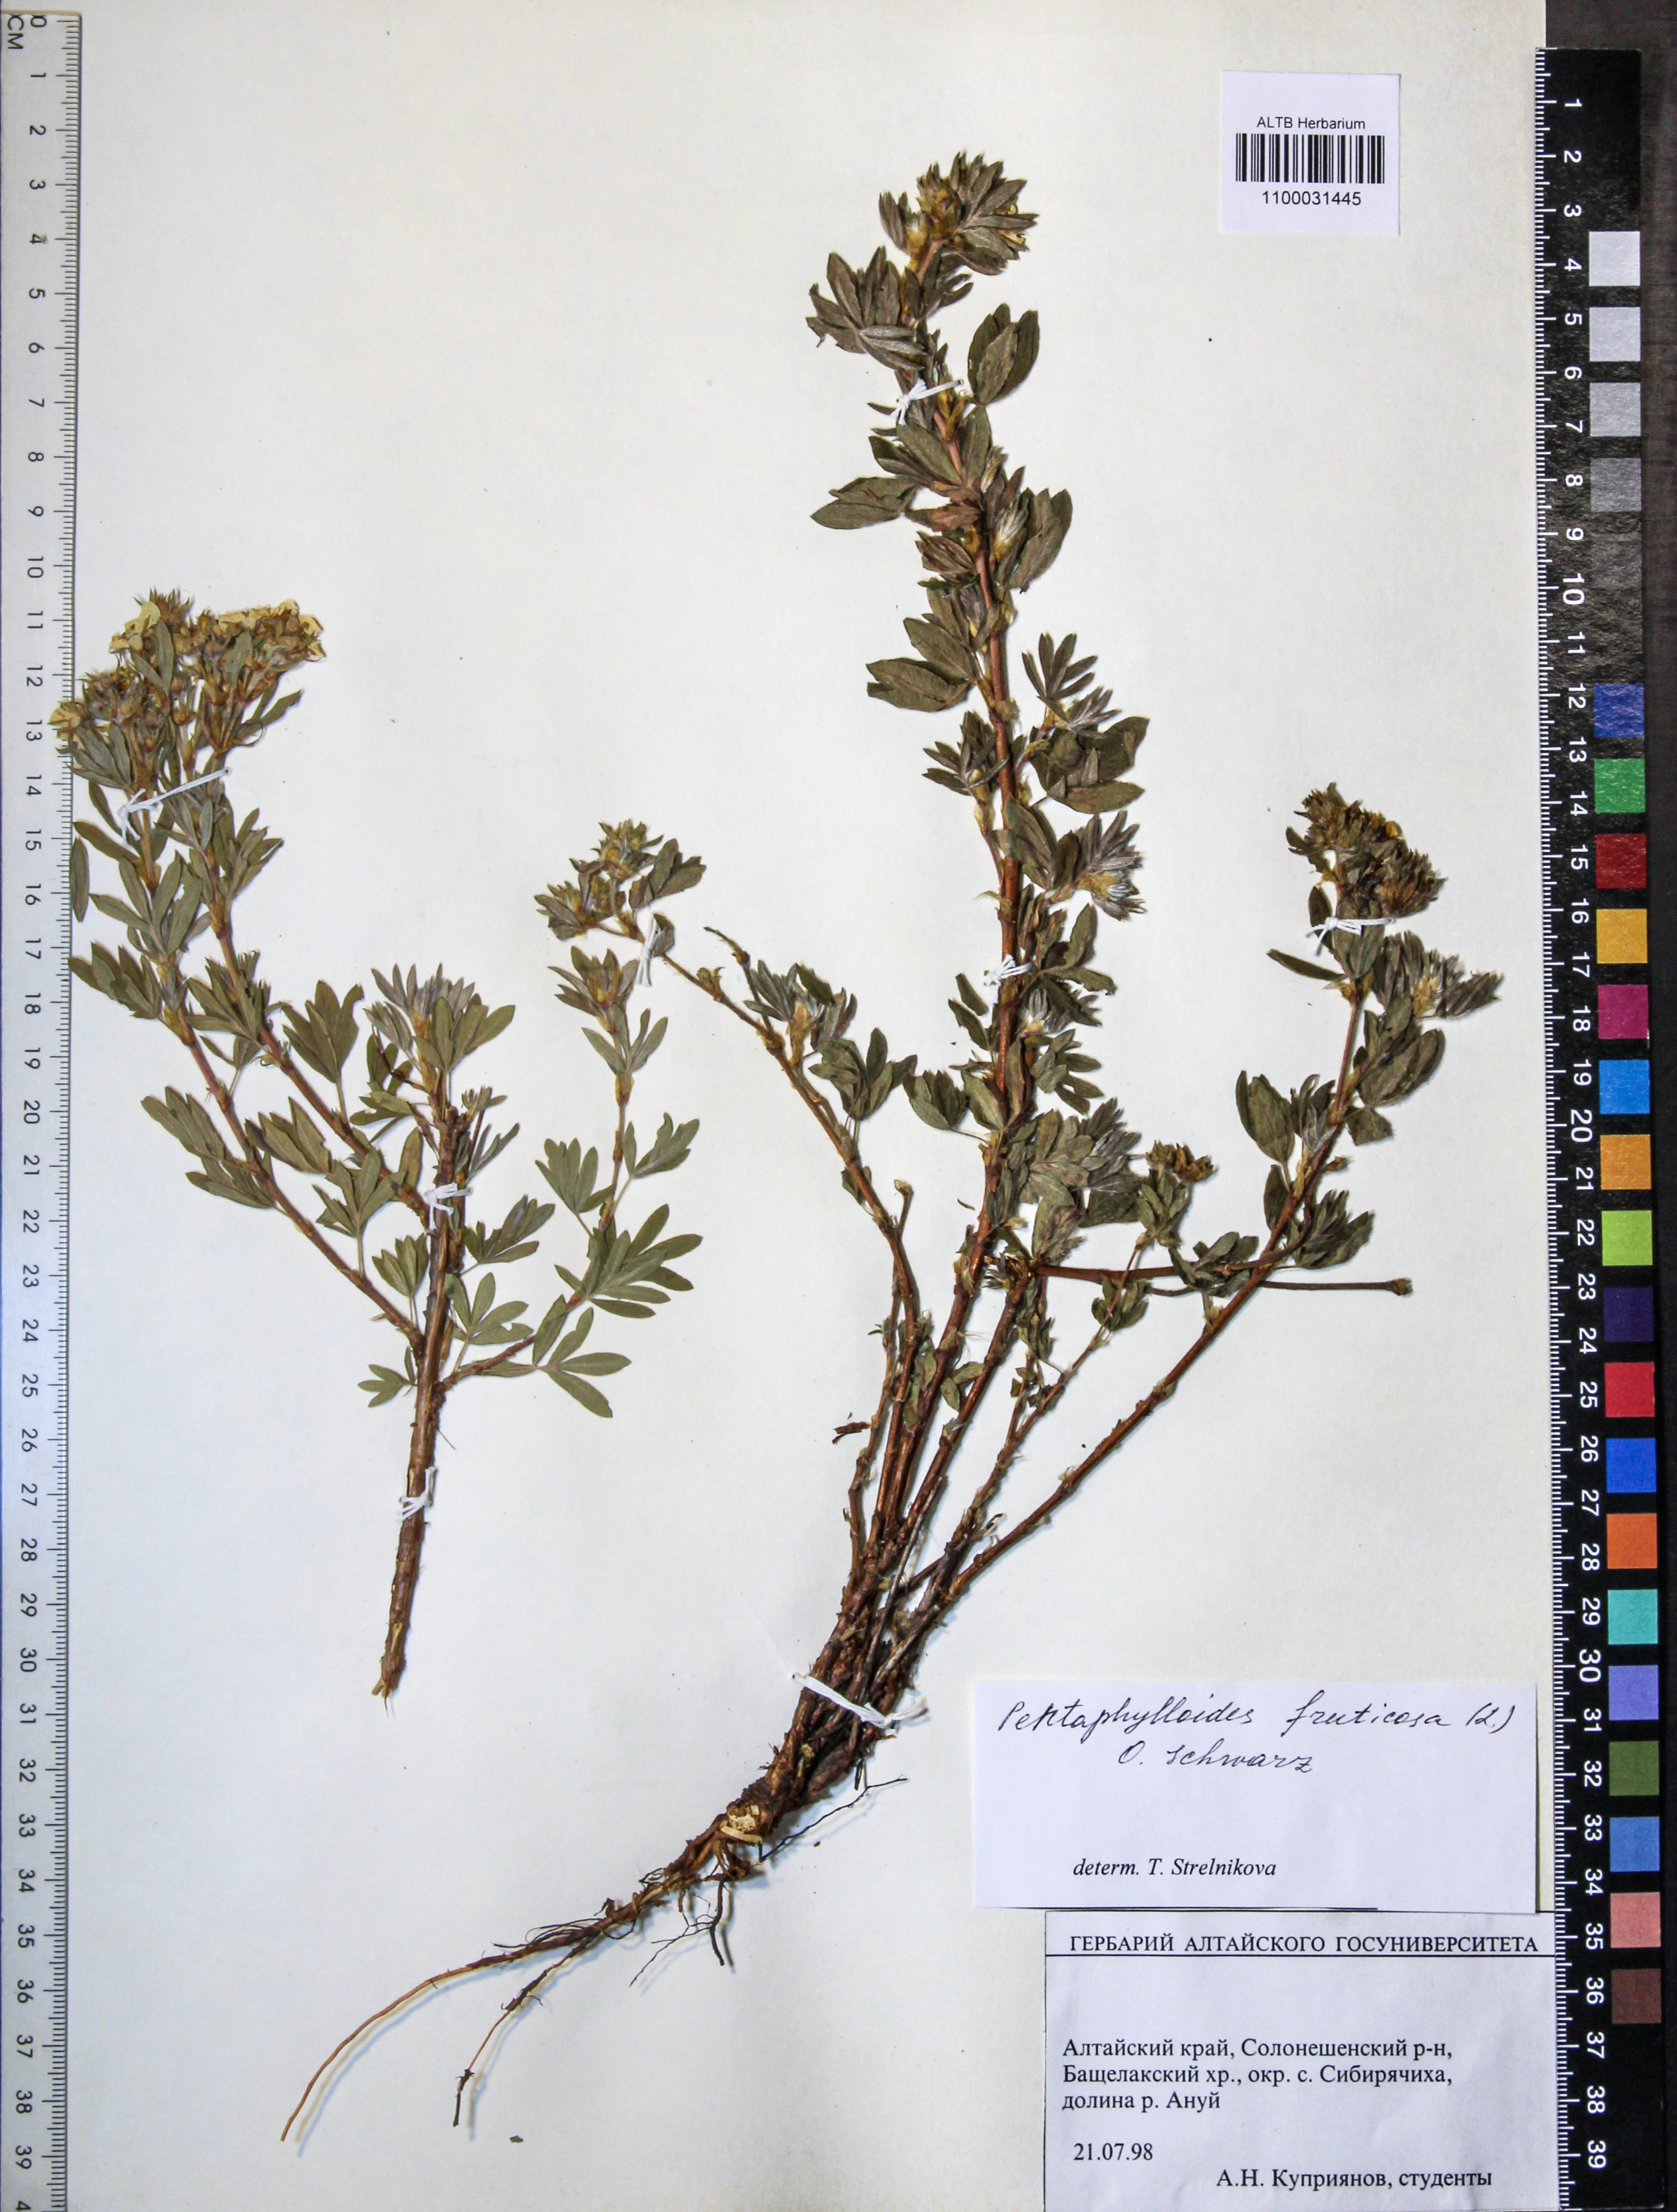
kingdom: Plantae
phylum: Tracheophyta
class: Magnoliopsida
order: Rosales
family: Rosaceae
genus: Dasiphora
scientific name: Dasiphora fruticosa
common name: Shrubby cinquefoil
